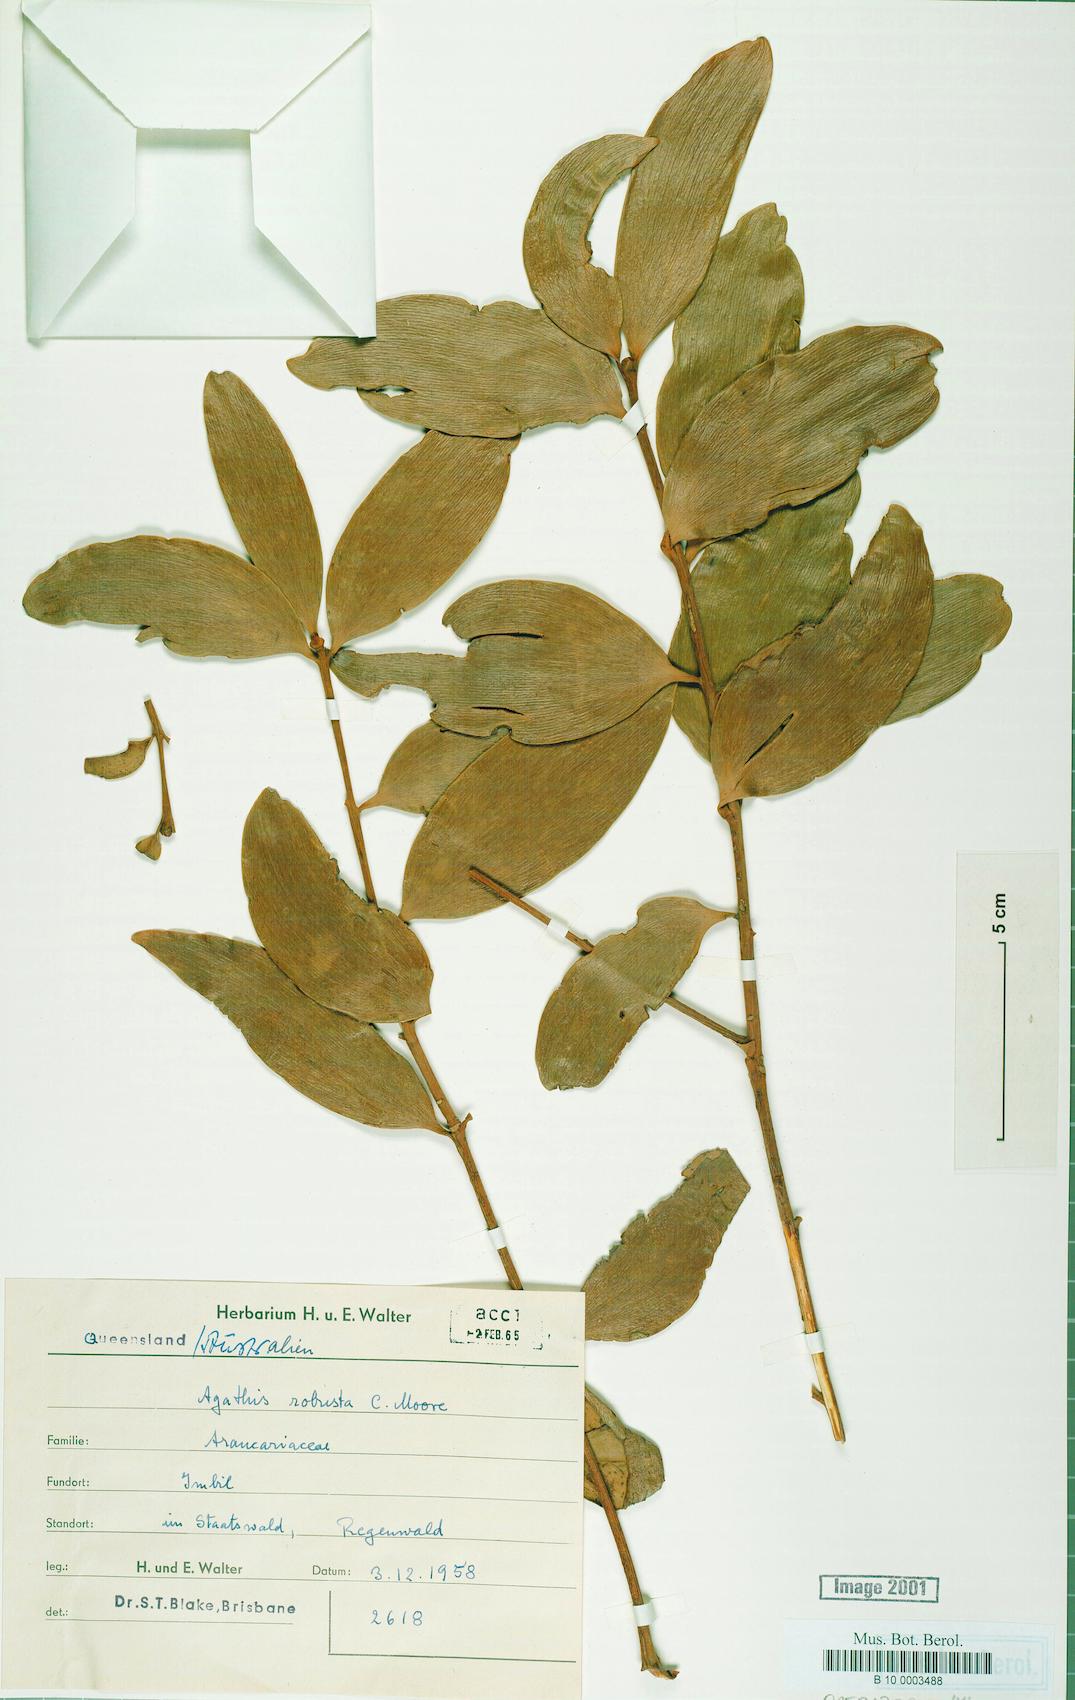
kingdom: Plantae
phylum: Tracheophyta
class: Pinopsida
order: Pinales
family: Araucariaceae
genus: Agathis
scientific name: Agathis robusta
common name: Australian-kauri
